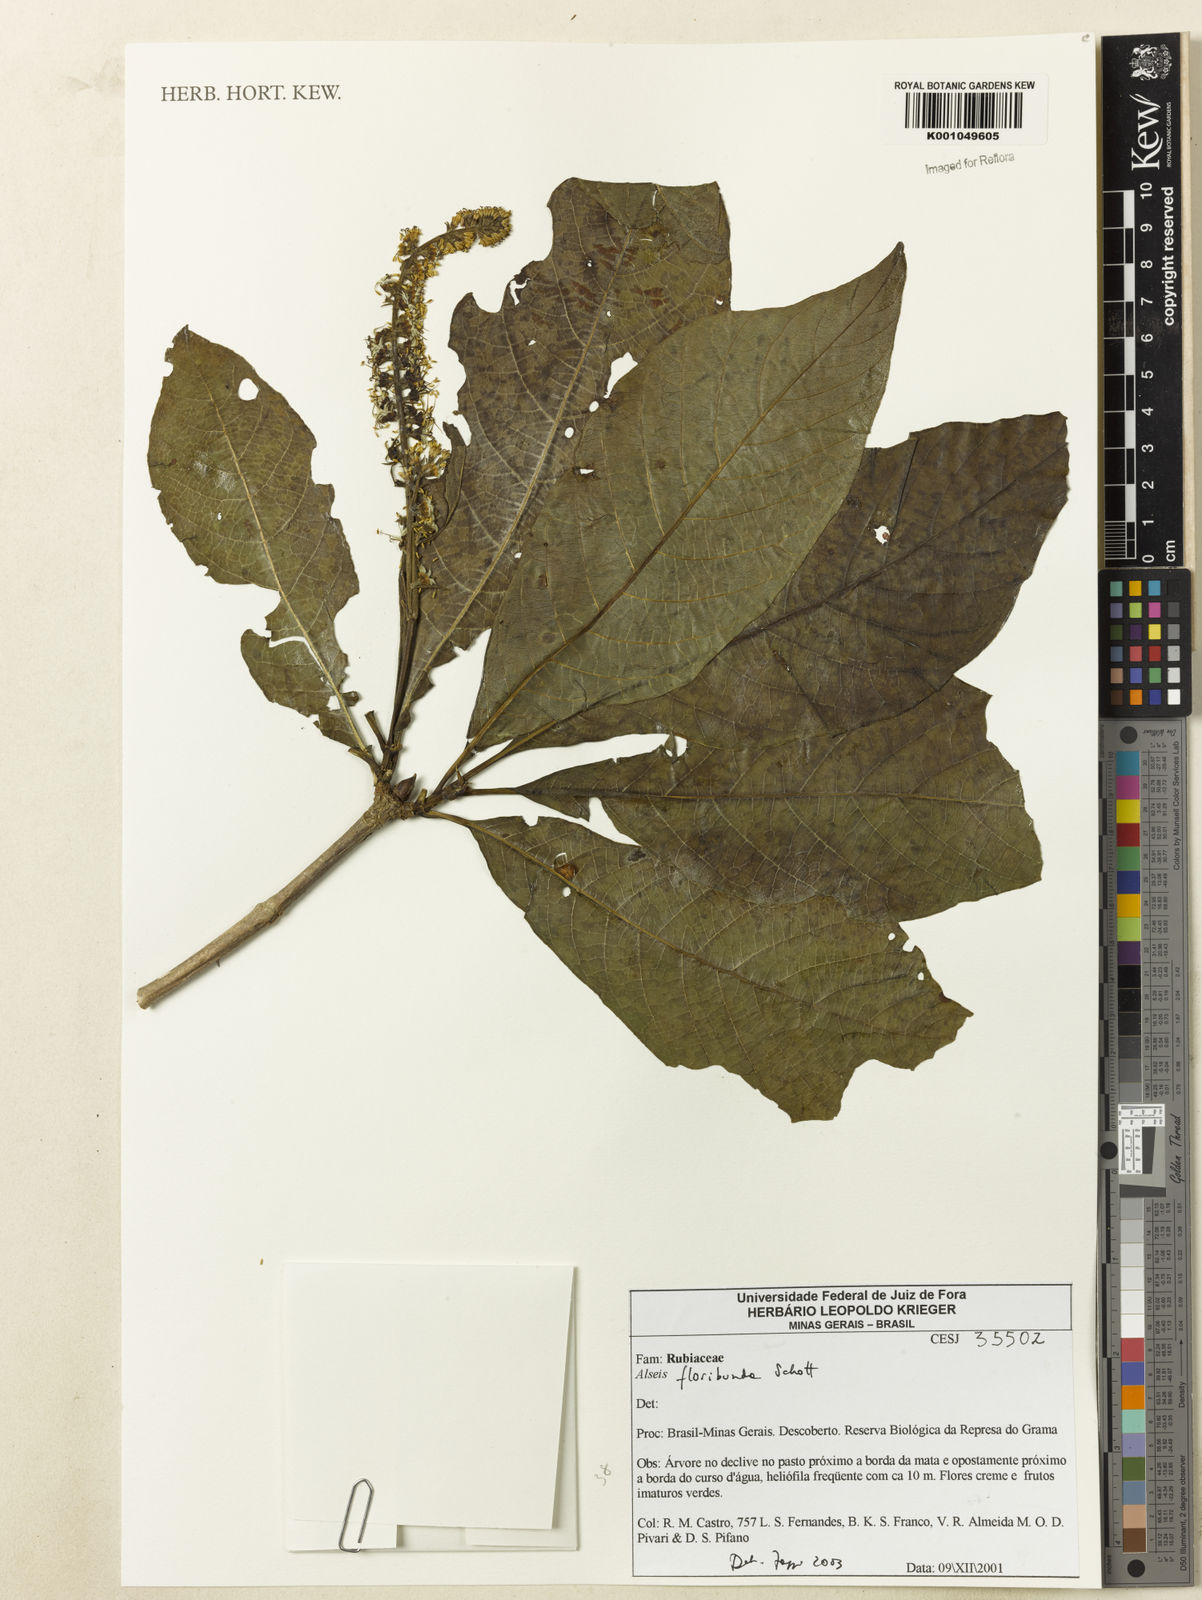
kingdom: Plantae
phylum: Tracheophyta
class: Magnoliopsida
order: Gentianales
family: Rubiaceae
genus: Alseis
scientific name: Alseis floribunda
